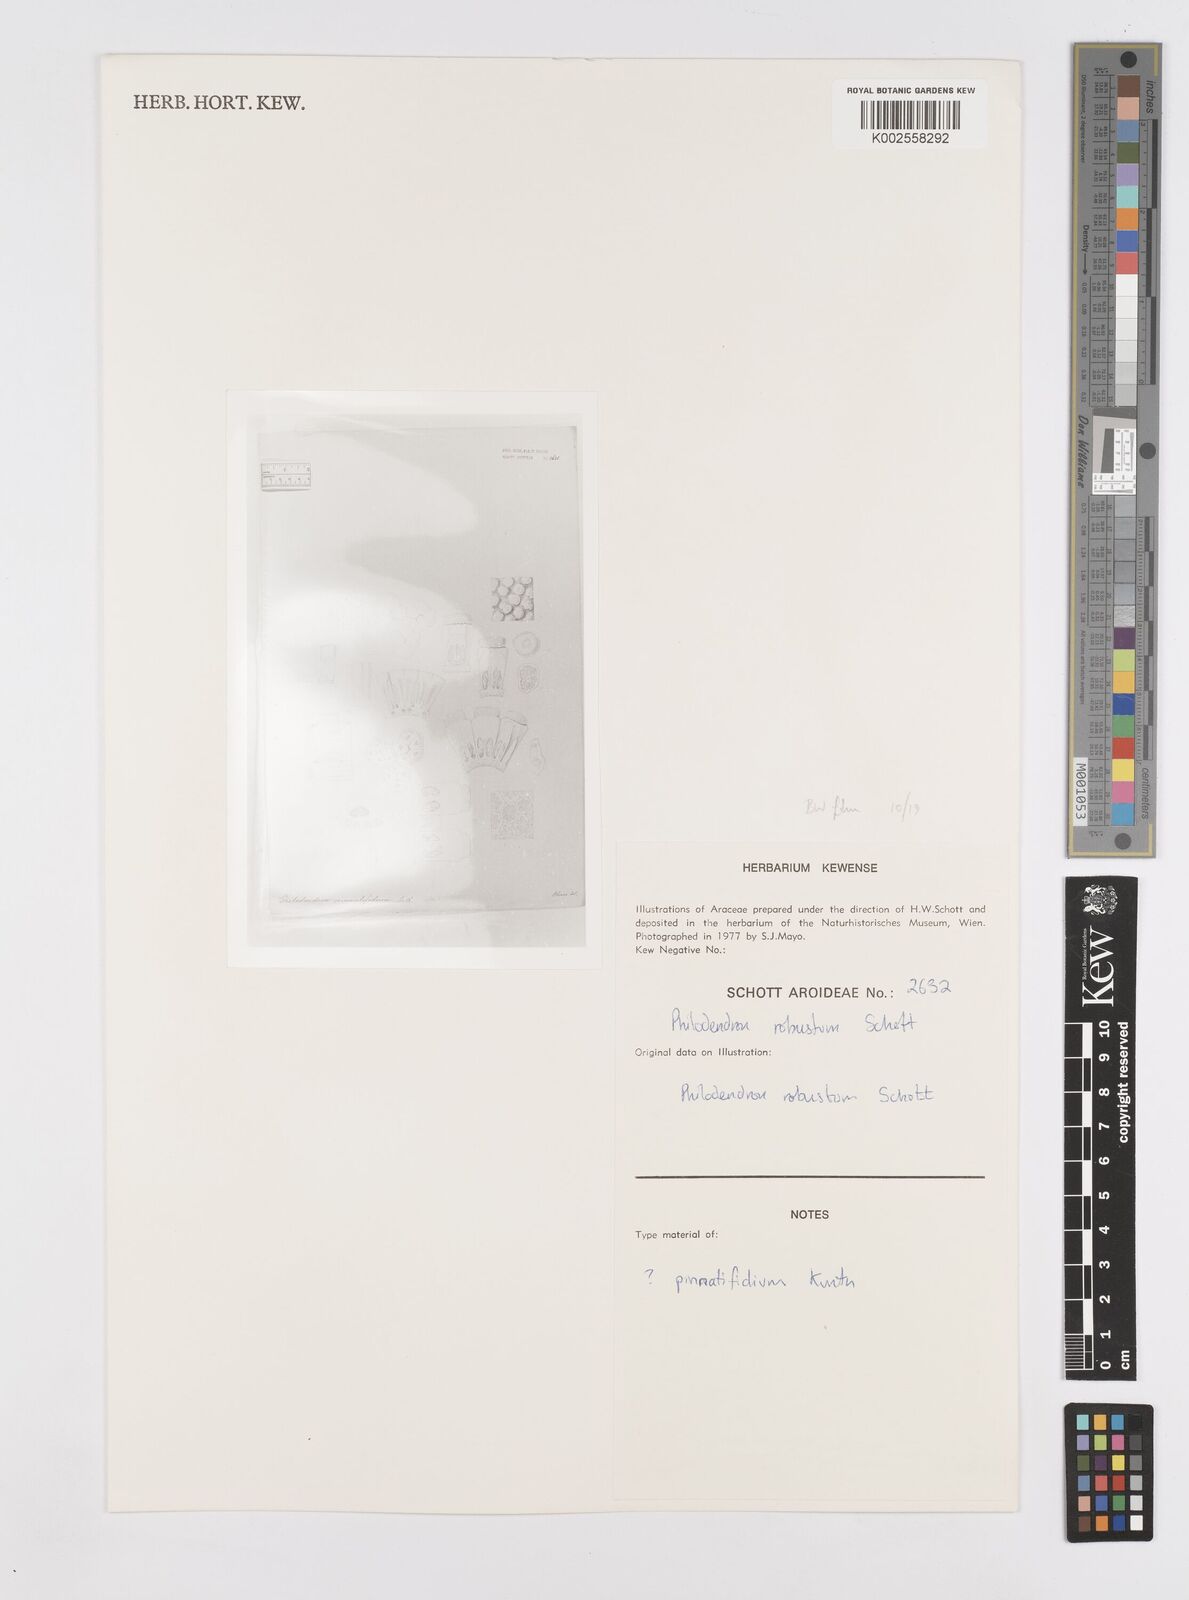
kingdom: Plantae
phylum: Tracheophyta
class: Liliopsida
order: Alismatales
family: Araceae
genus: Philodendron
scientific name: Philodendron
